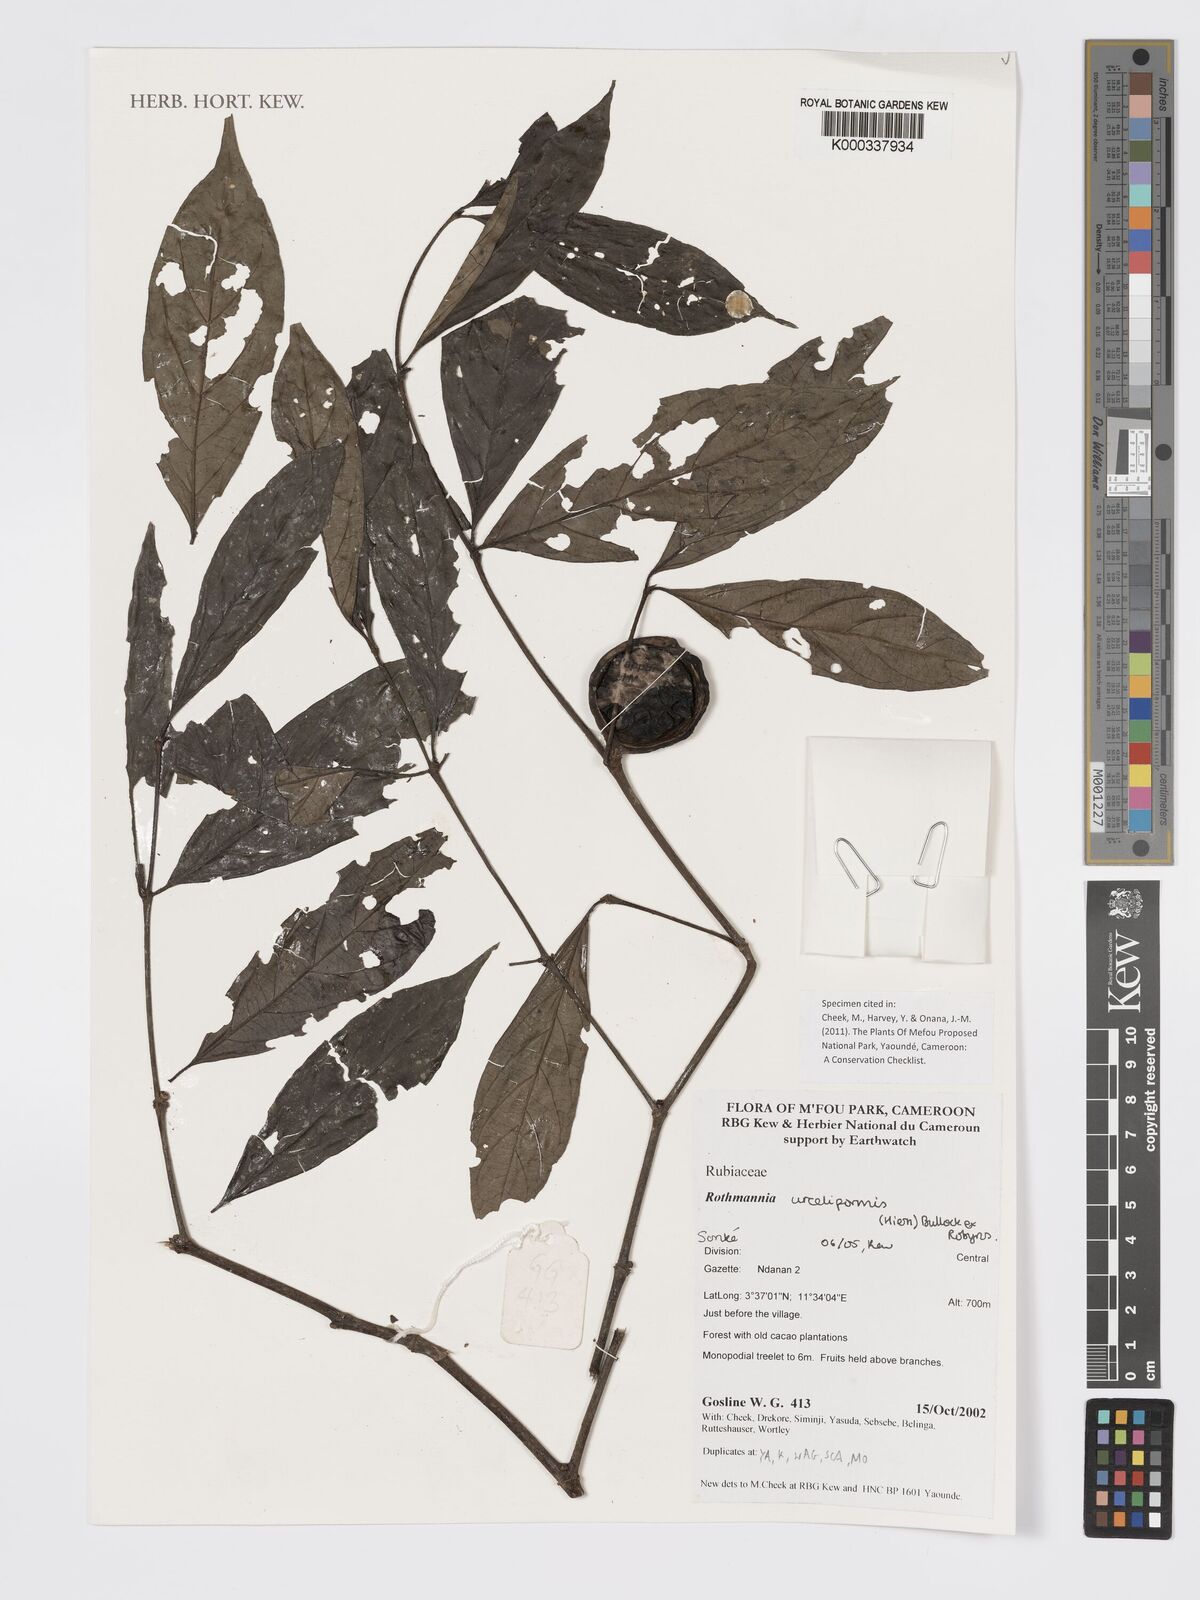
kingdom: Plantae
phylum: Tracheophyta
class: Magnoliopsida
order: Gentianales
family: Rubiaceae
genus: Rothmannia
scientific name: Rothmannia urcelliformis
